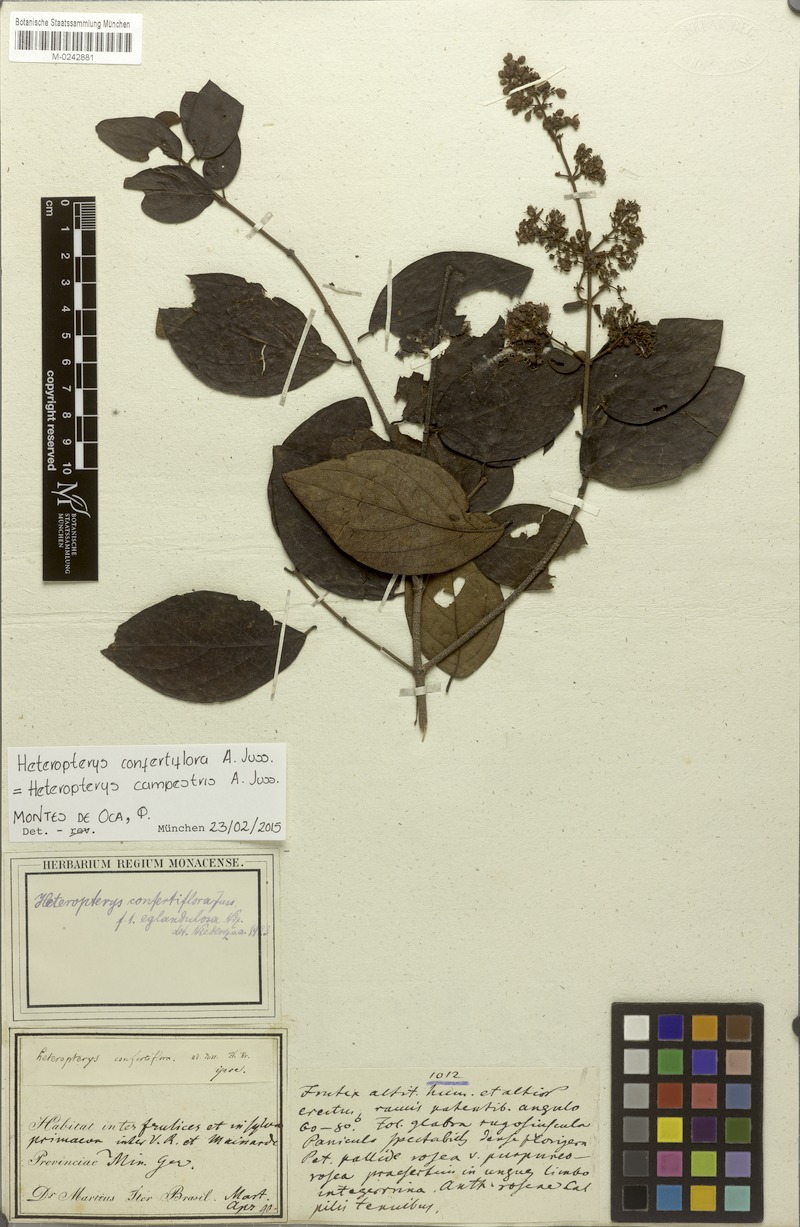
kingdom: Plantae
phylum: Tracheophyta
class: Magnoliopsida
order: Malpighiales
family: Malpighiaceae
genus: Heteropterys
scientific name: Heteropterys campestris
